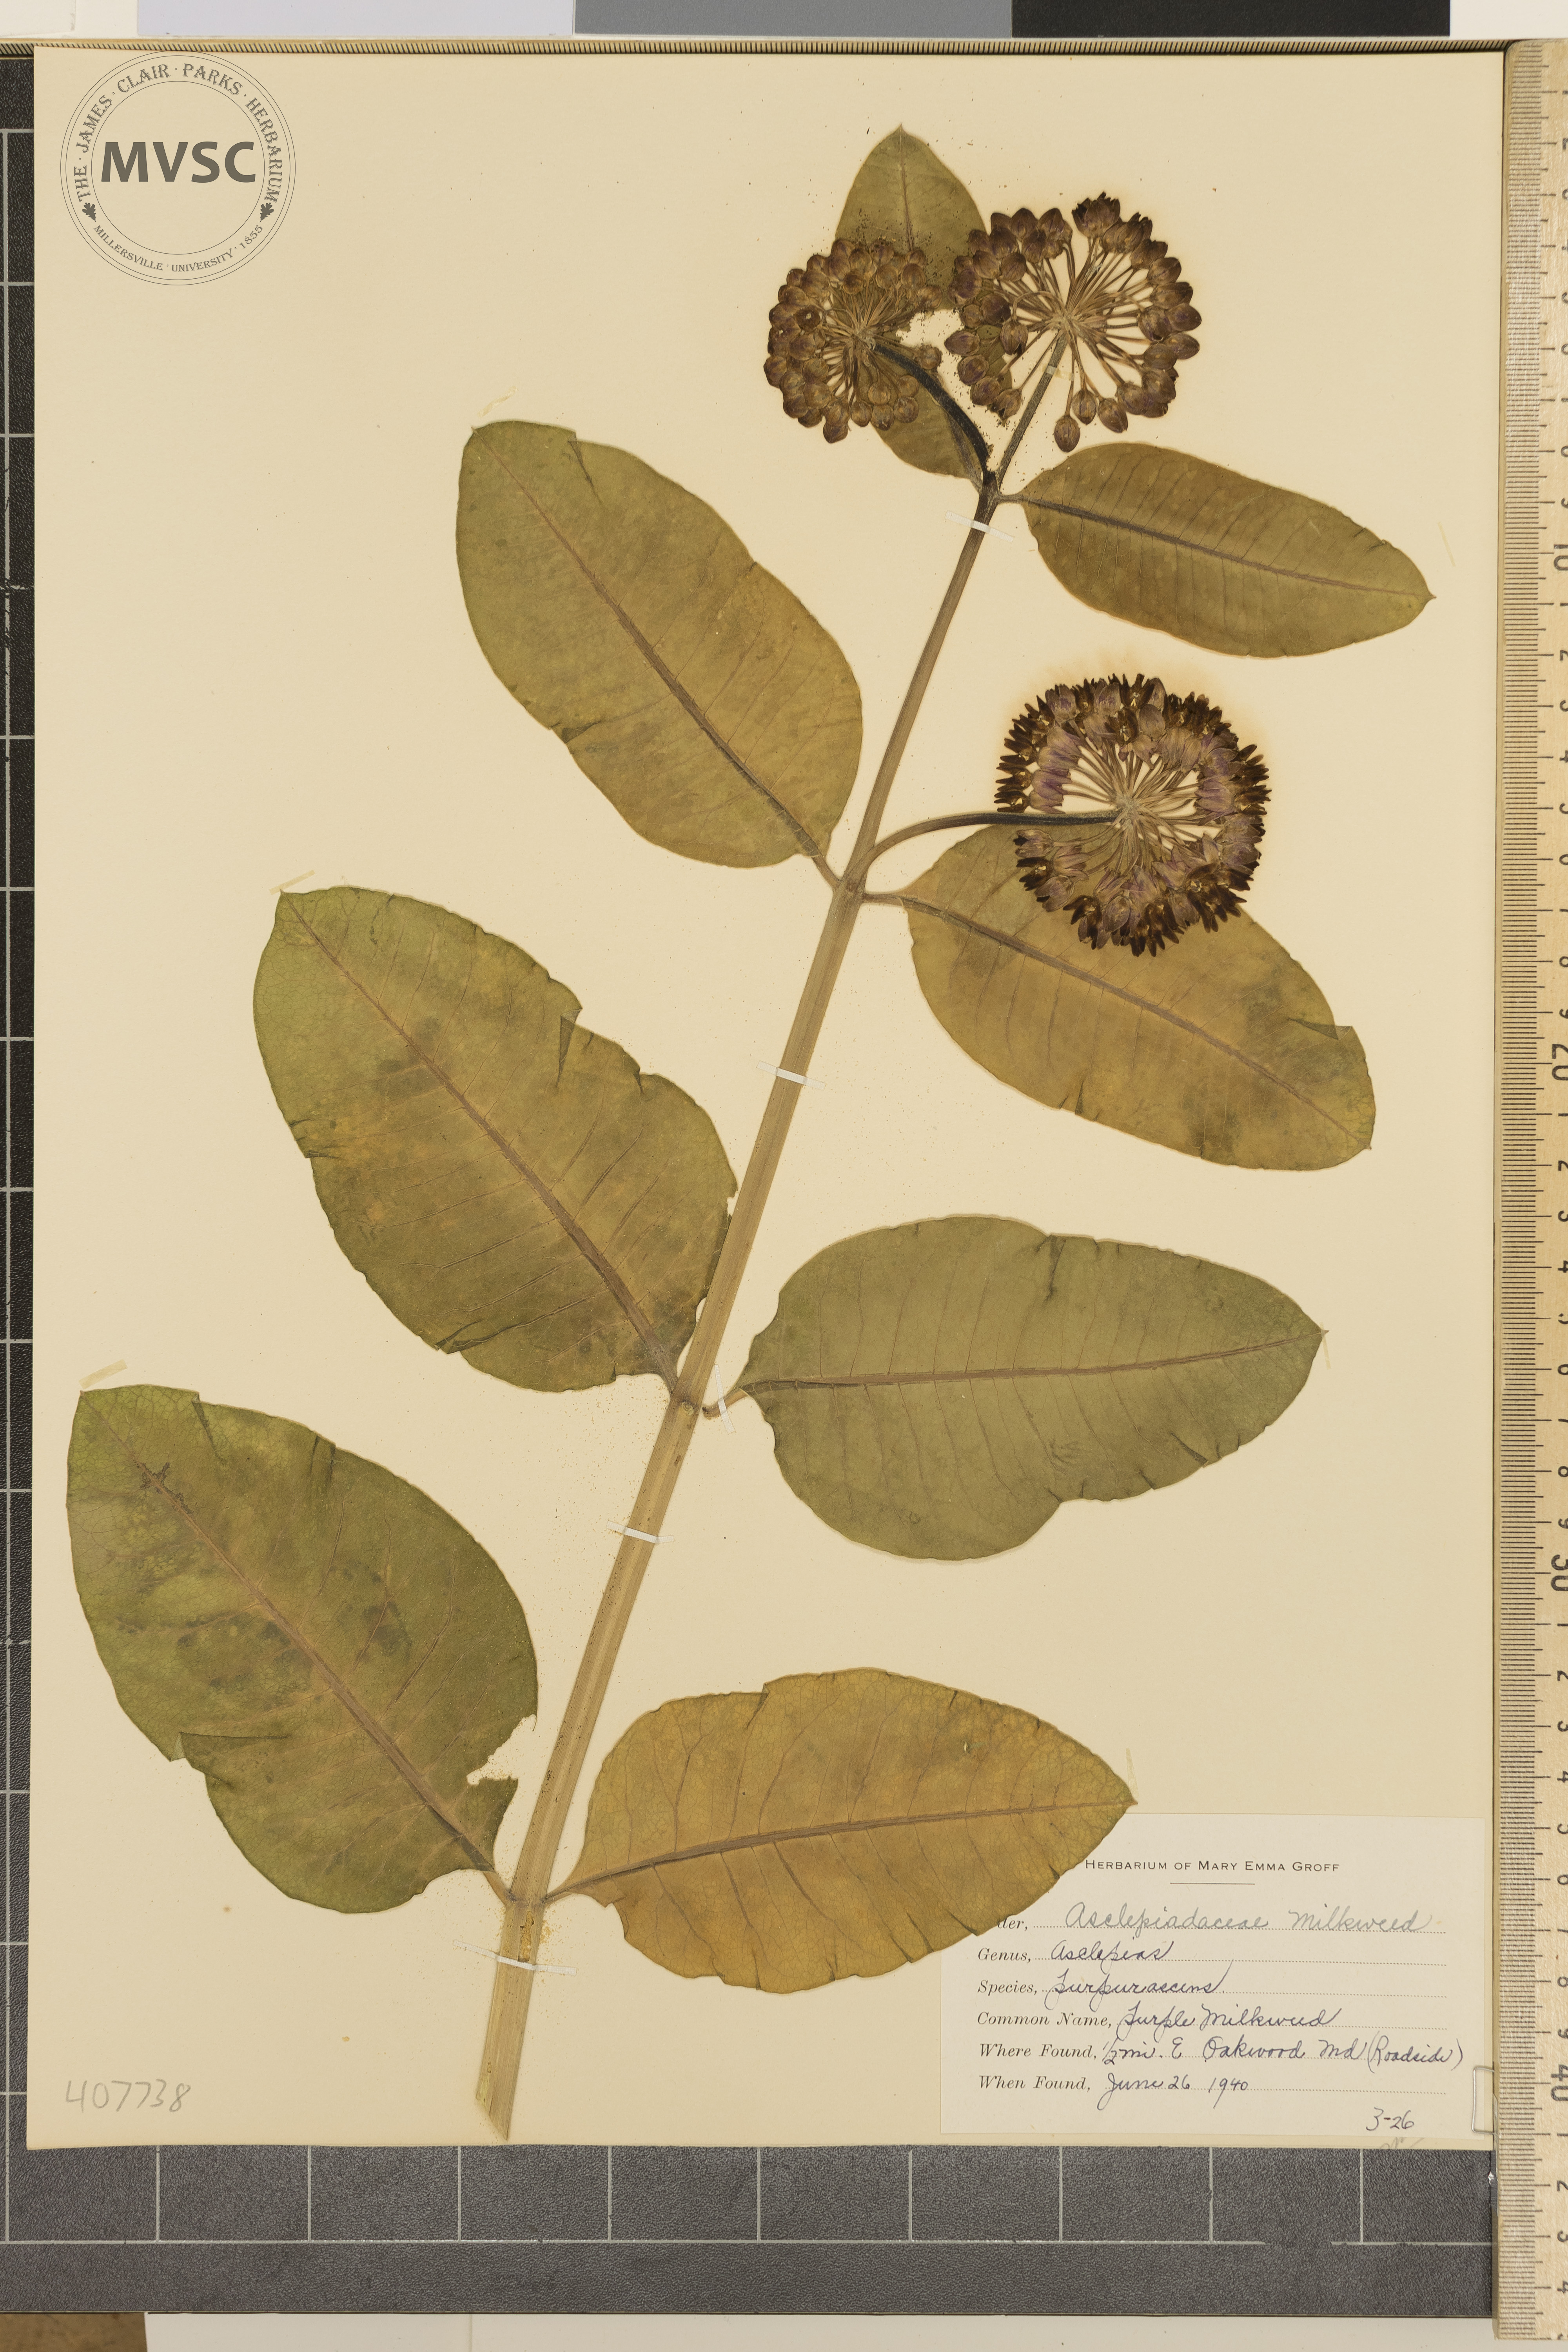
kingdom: Plantae
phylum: Tracheophyta
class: Magnoliopsida
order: Gentianales
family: Apocynaceae
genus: Asclepias
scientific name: Asclepias purpurascens
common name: Purple Milkweed
